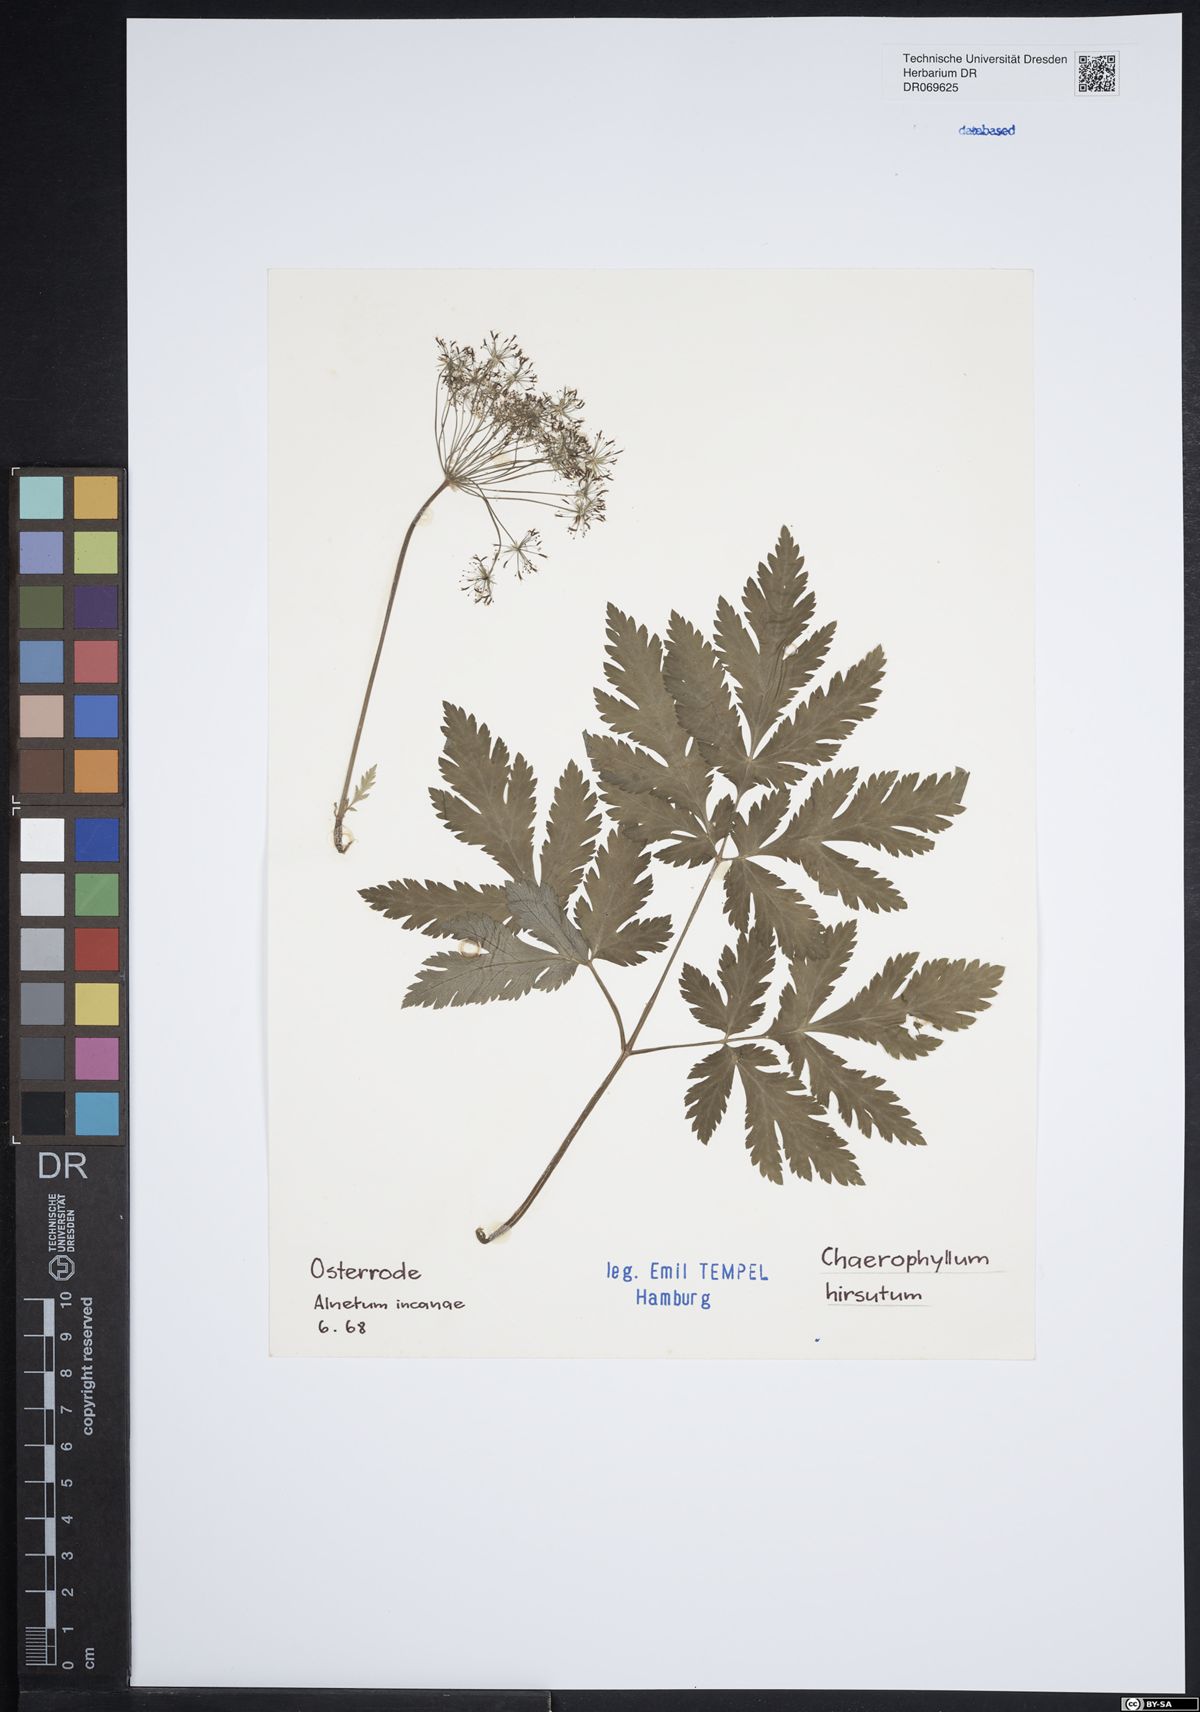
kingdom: Plantae
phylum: Tracheophyta
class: Magnoliopsida
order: Apiales
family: Apiaceae
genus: Chaerophyllum
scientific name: Chaerophyllum hirsutum
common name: Hairy chervil
